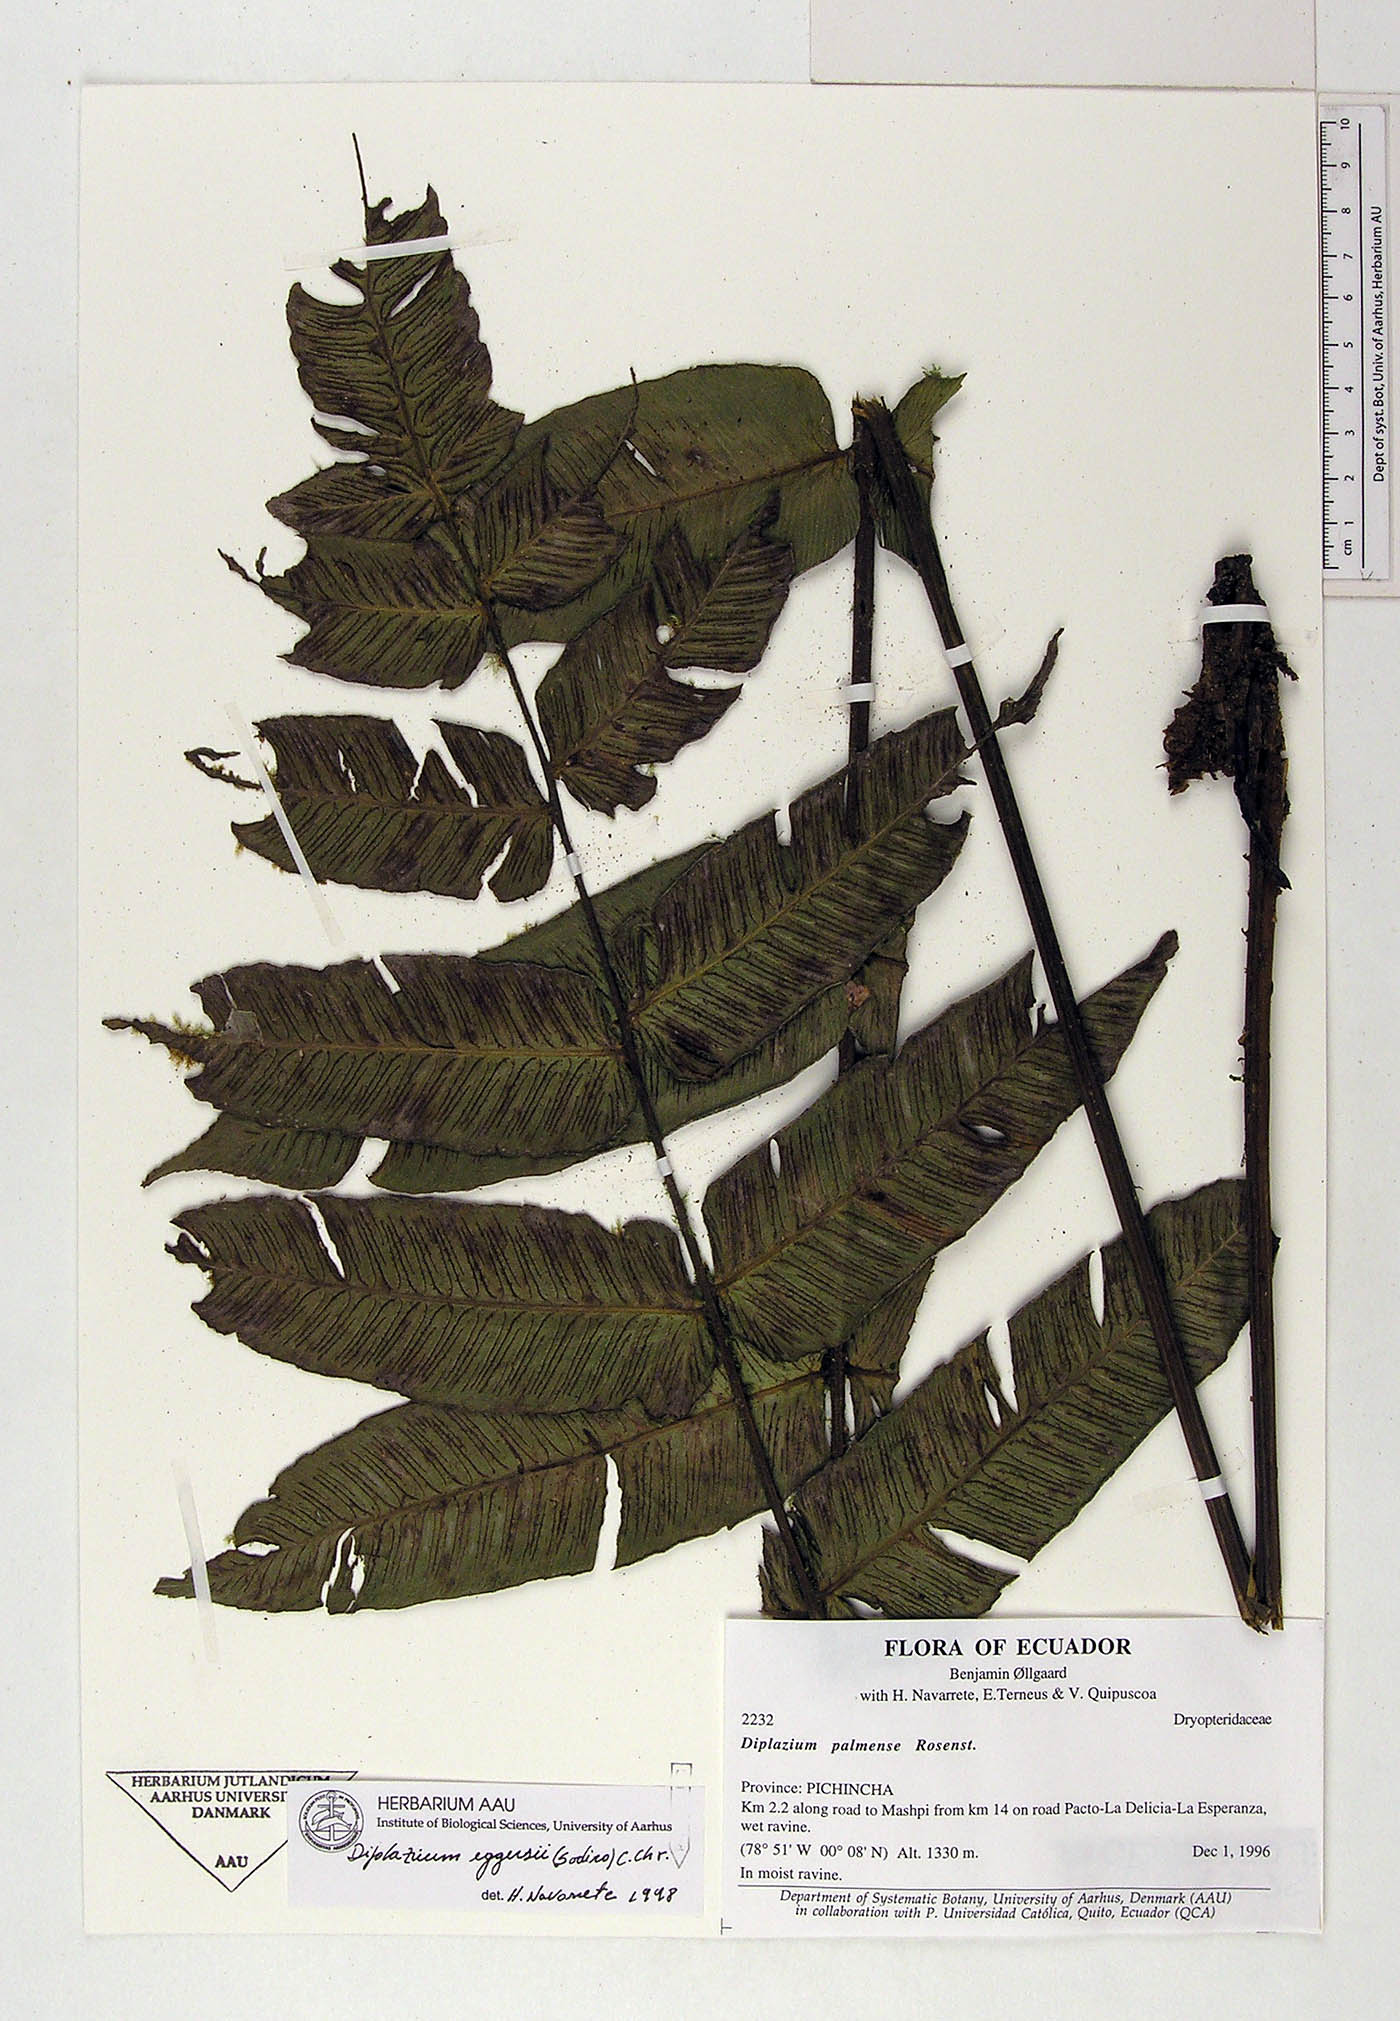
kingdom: Plantae
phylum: Tracheophyta
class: Polypodiopsida
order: Polypodiales
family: Athyriaceae
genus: Diplazium
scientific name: Diplazium palmense
